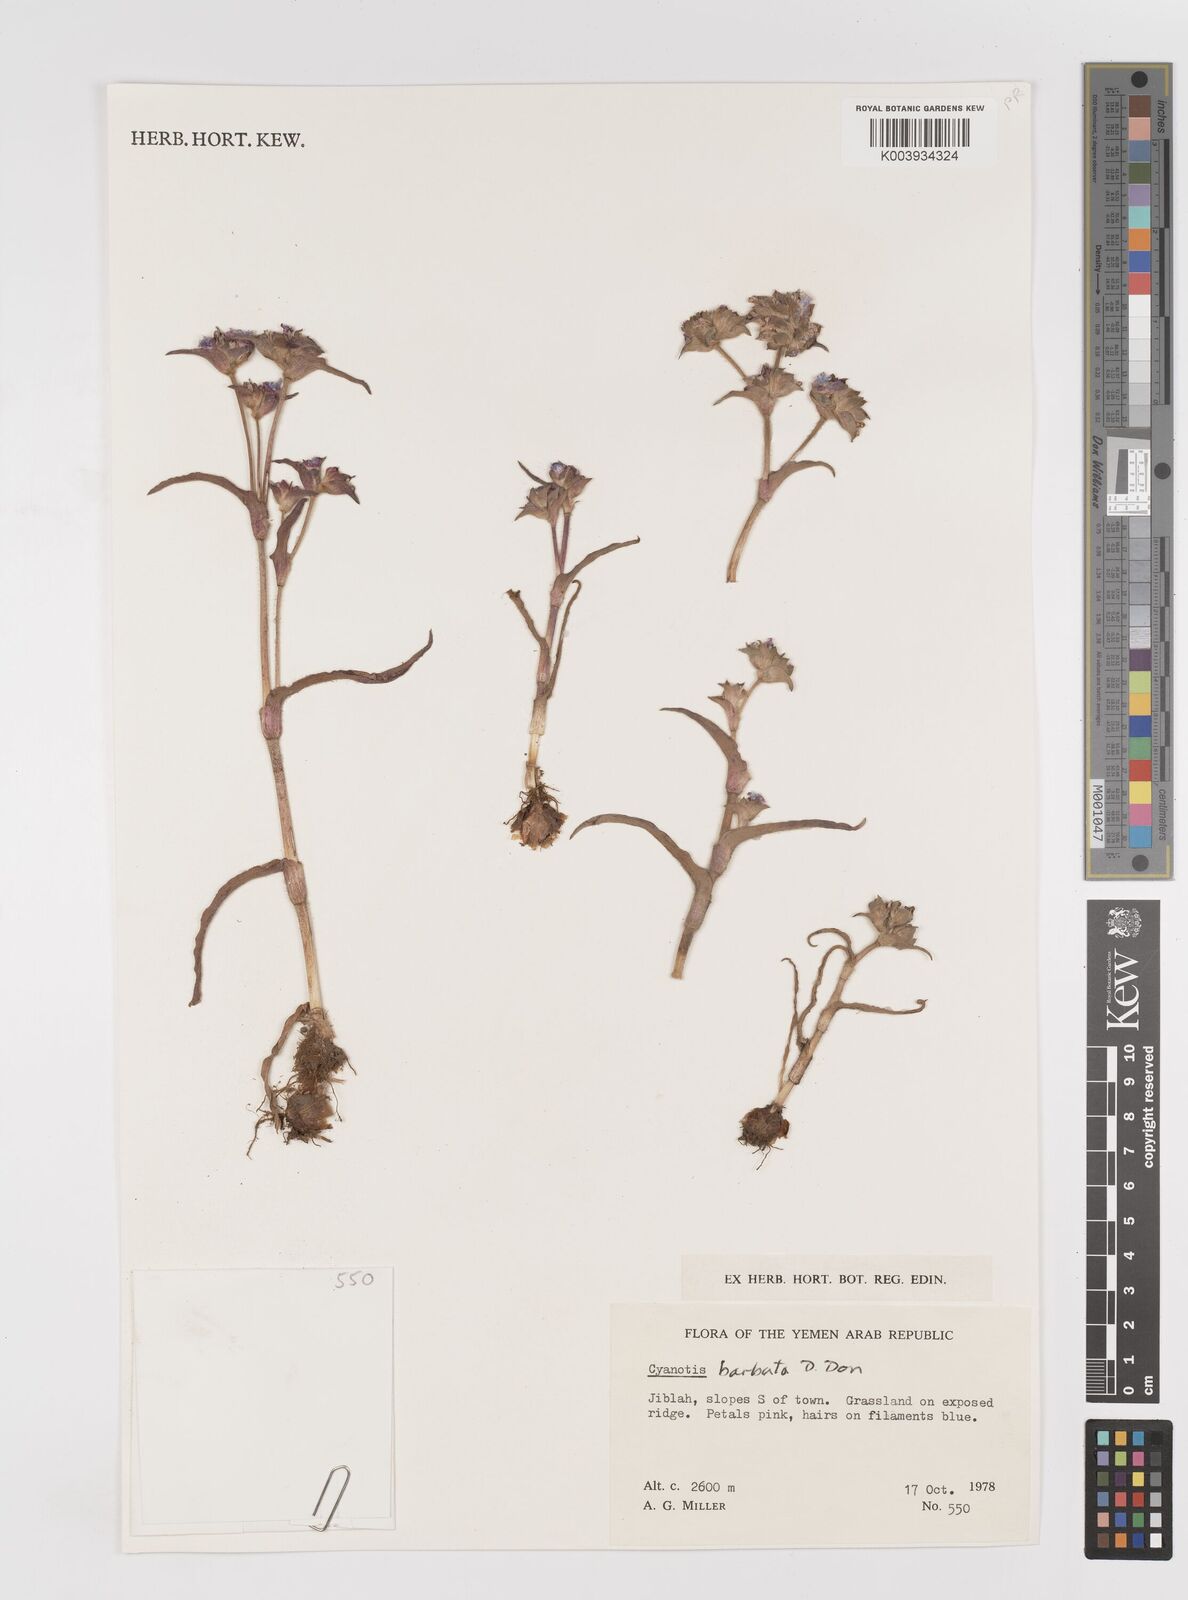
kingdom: Plantae
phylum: Tracheophyta
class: Liliopsida
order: Commelinales
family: Commelinaceae
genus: Cyanotis
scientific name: Cyanotis vaga
